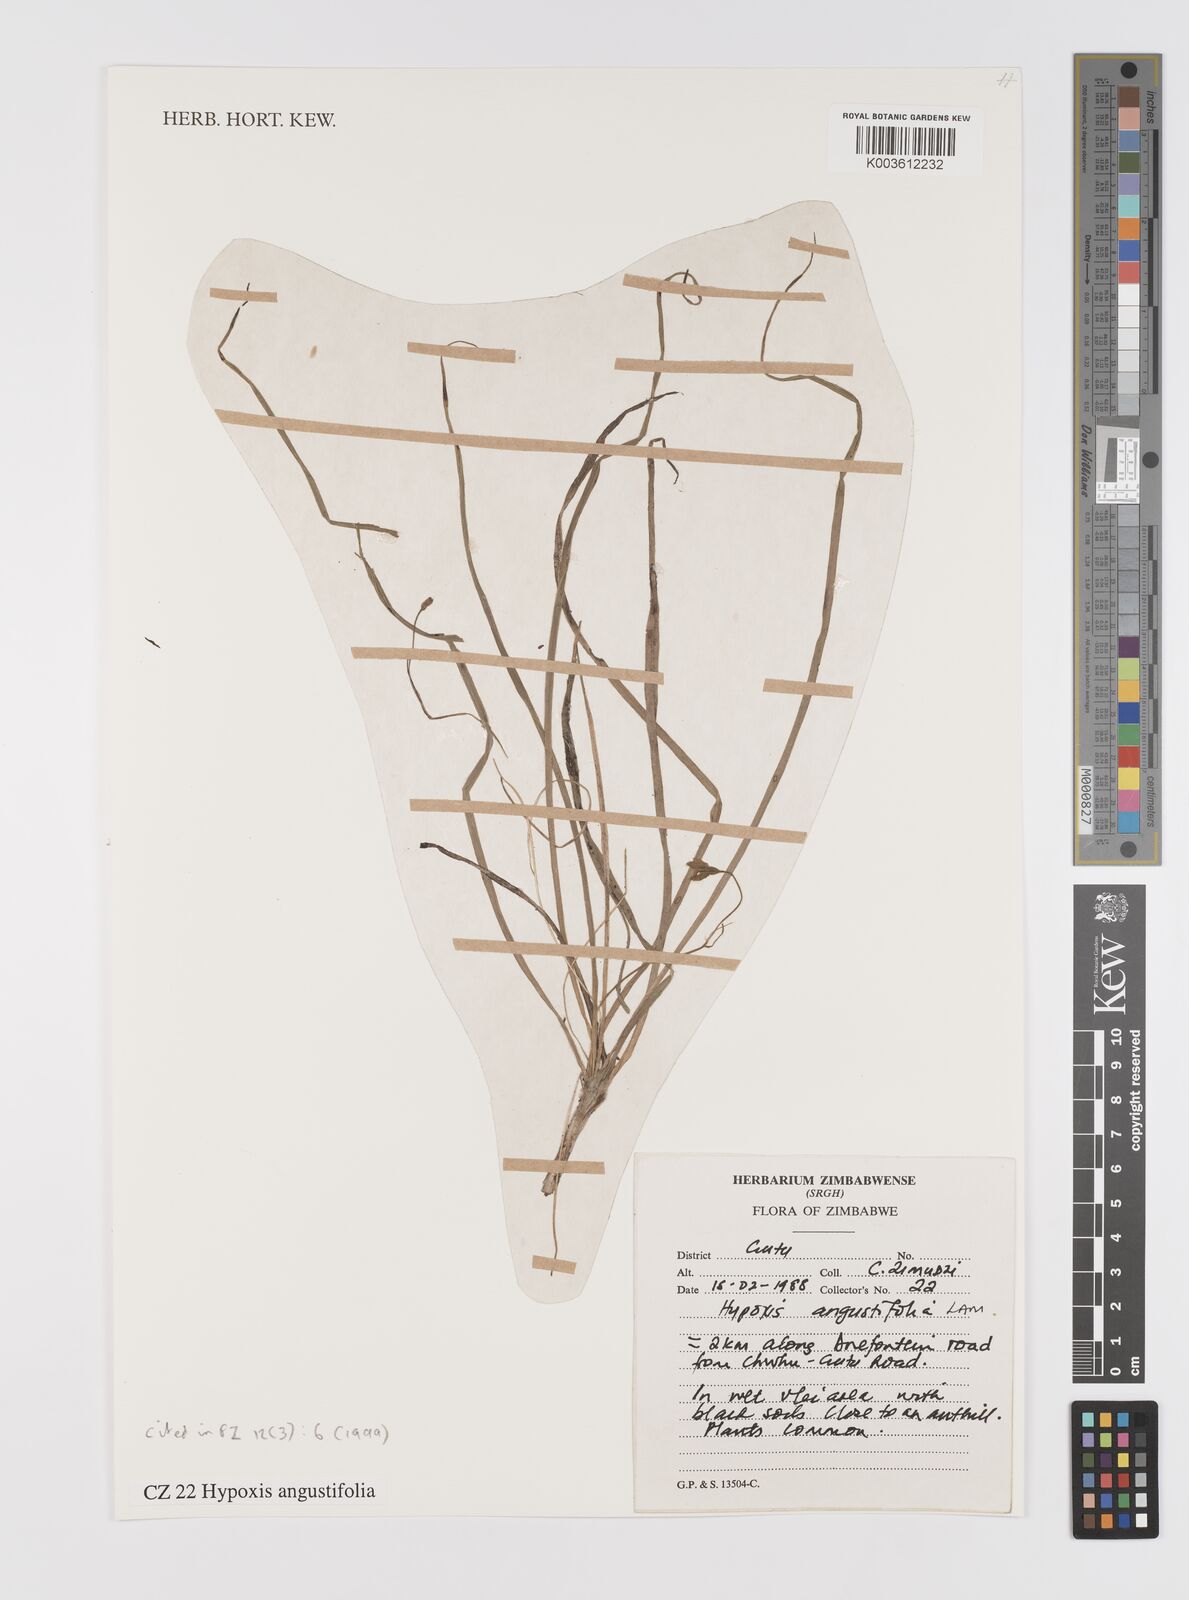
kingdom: Plantae
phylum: Tracheophyta
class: Liliopsida
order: Asparagales
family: Hypoxidaceae
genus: Hypoxis
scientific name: Hypoxis angustifolia
